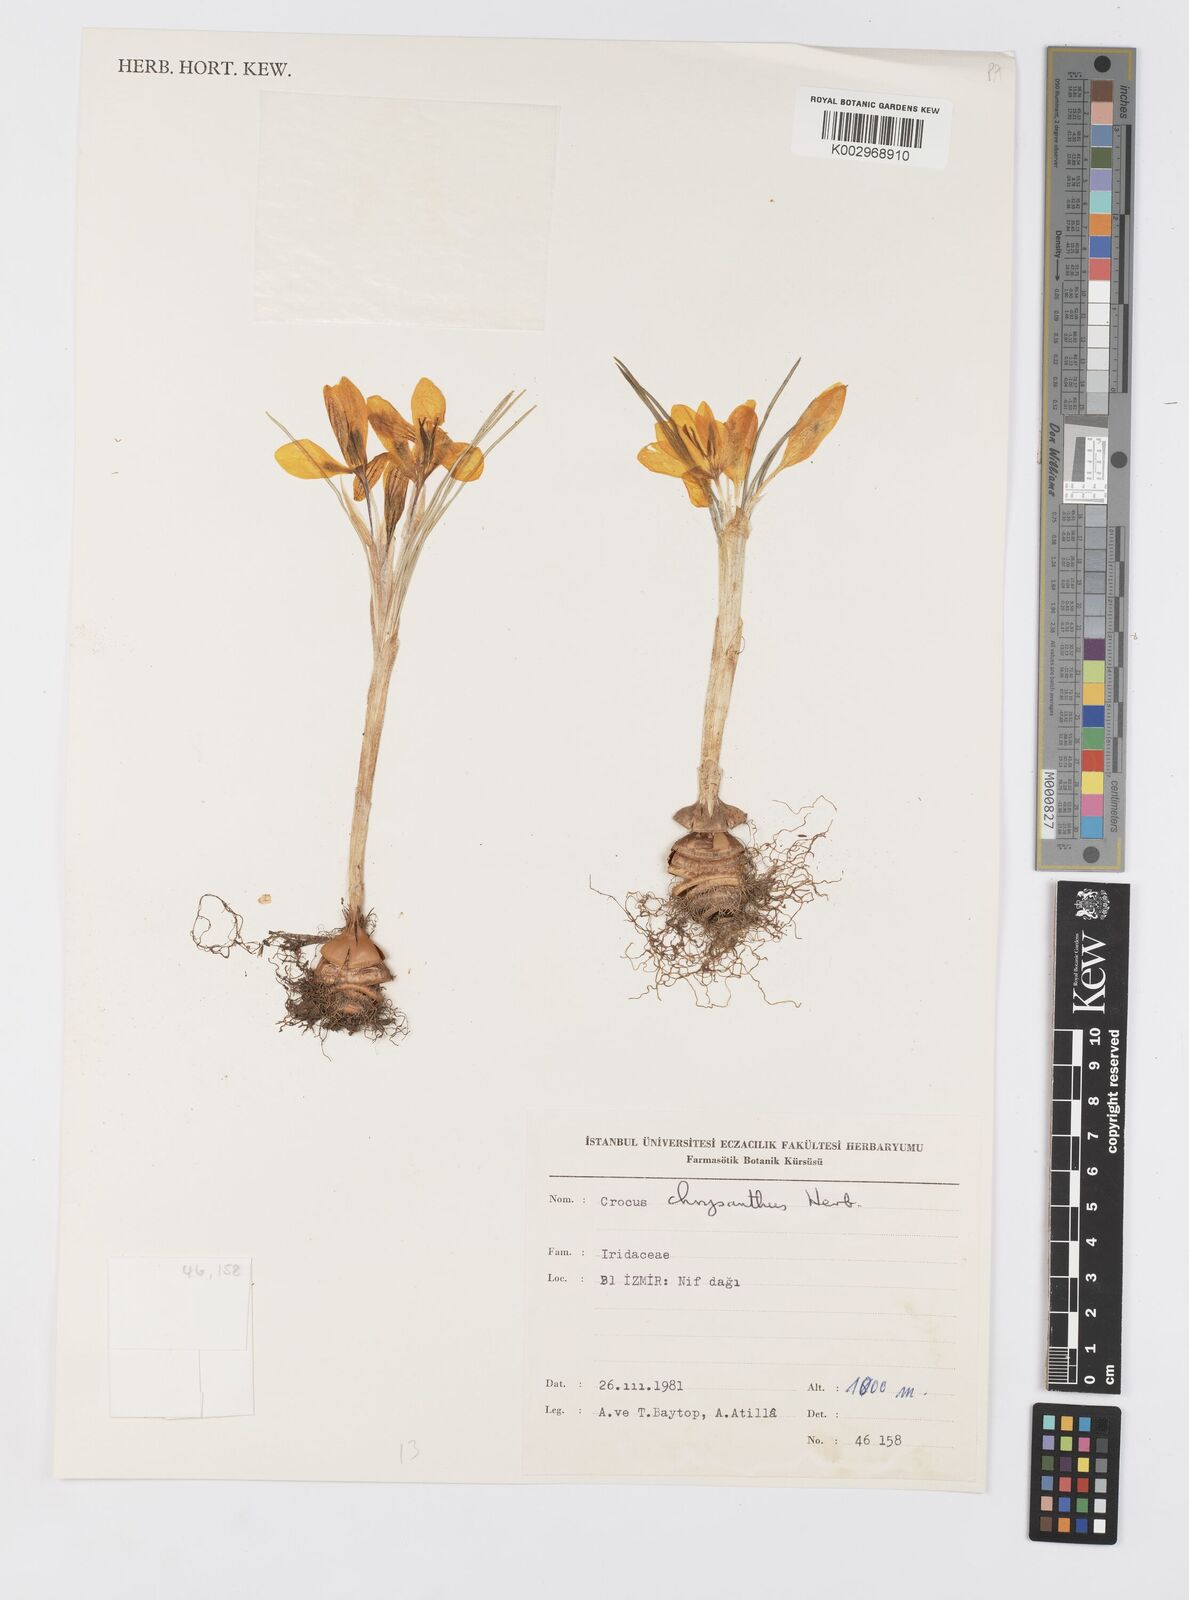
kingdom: Plantae
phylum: Tracheophyta
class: Liliopsida
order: Asparagales
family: Iridaceae
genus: Crocus
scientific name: Crocus chrysanthus
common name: Golden crocus
